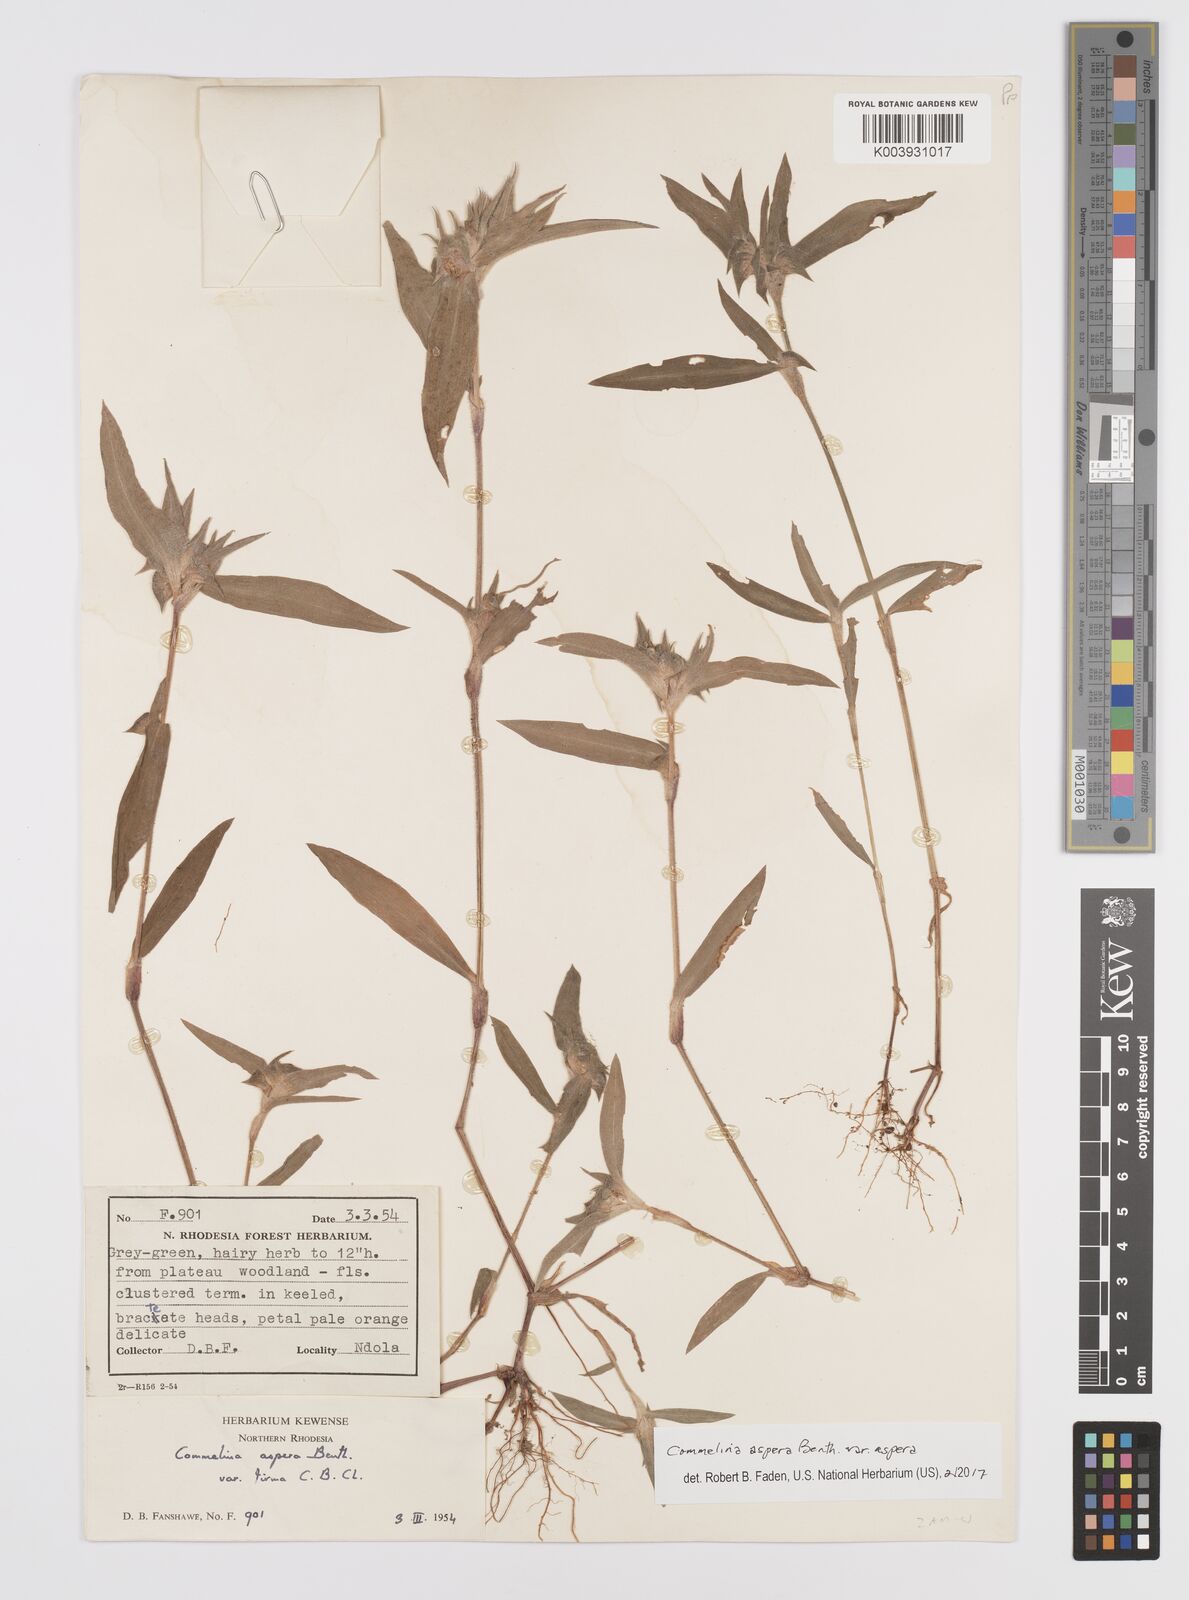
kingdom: Plantae
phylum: Tracheophyta
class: Liliopsida
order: Commelinales
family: Commelinaceae
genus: Commelina
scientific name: Commelina aspera
